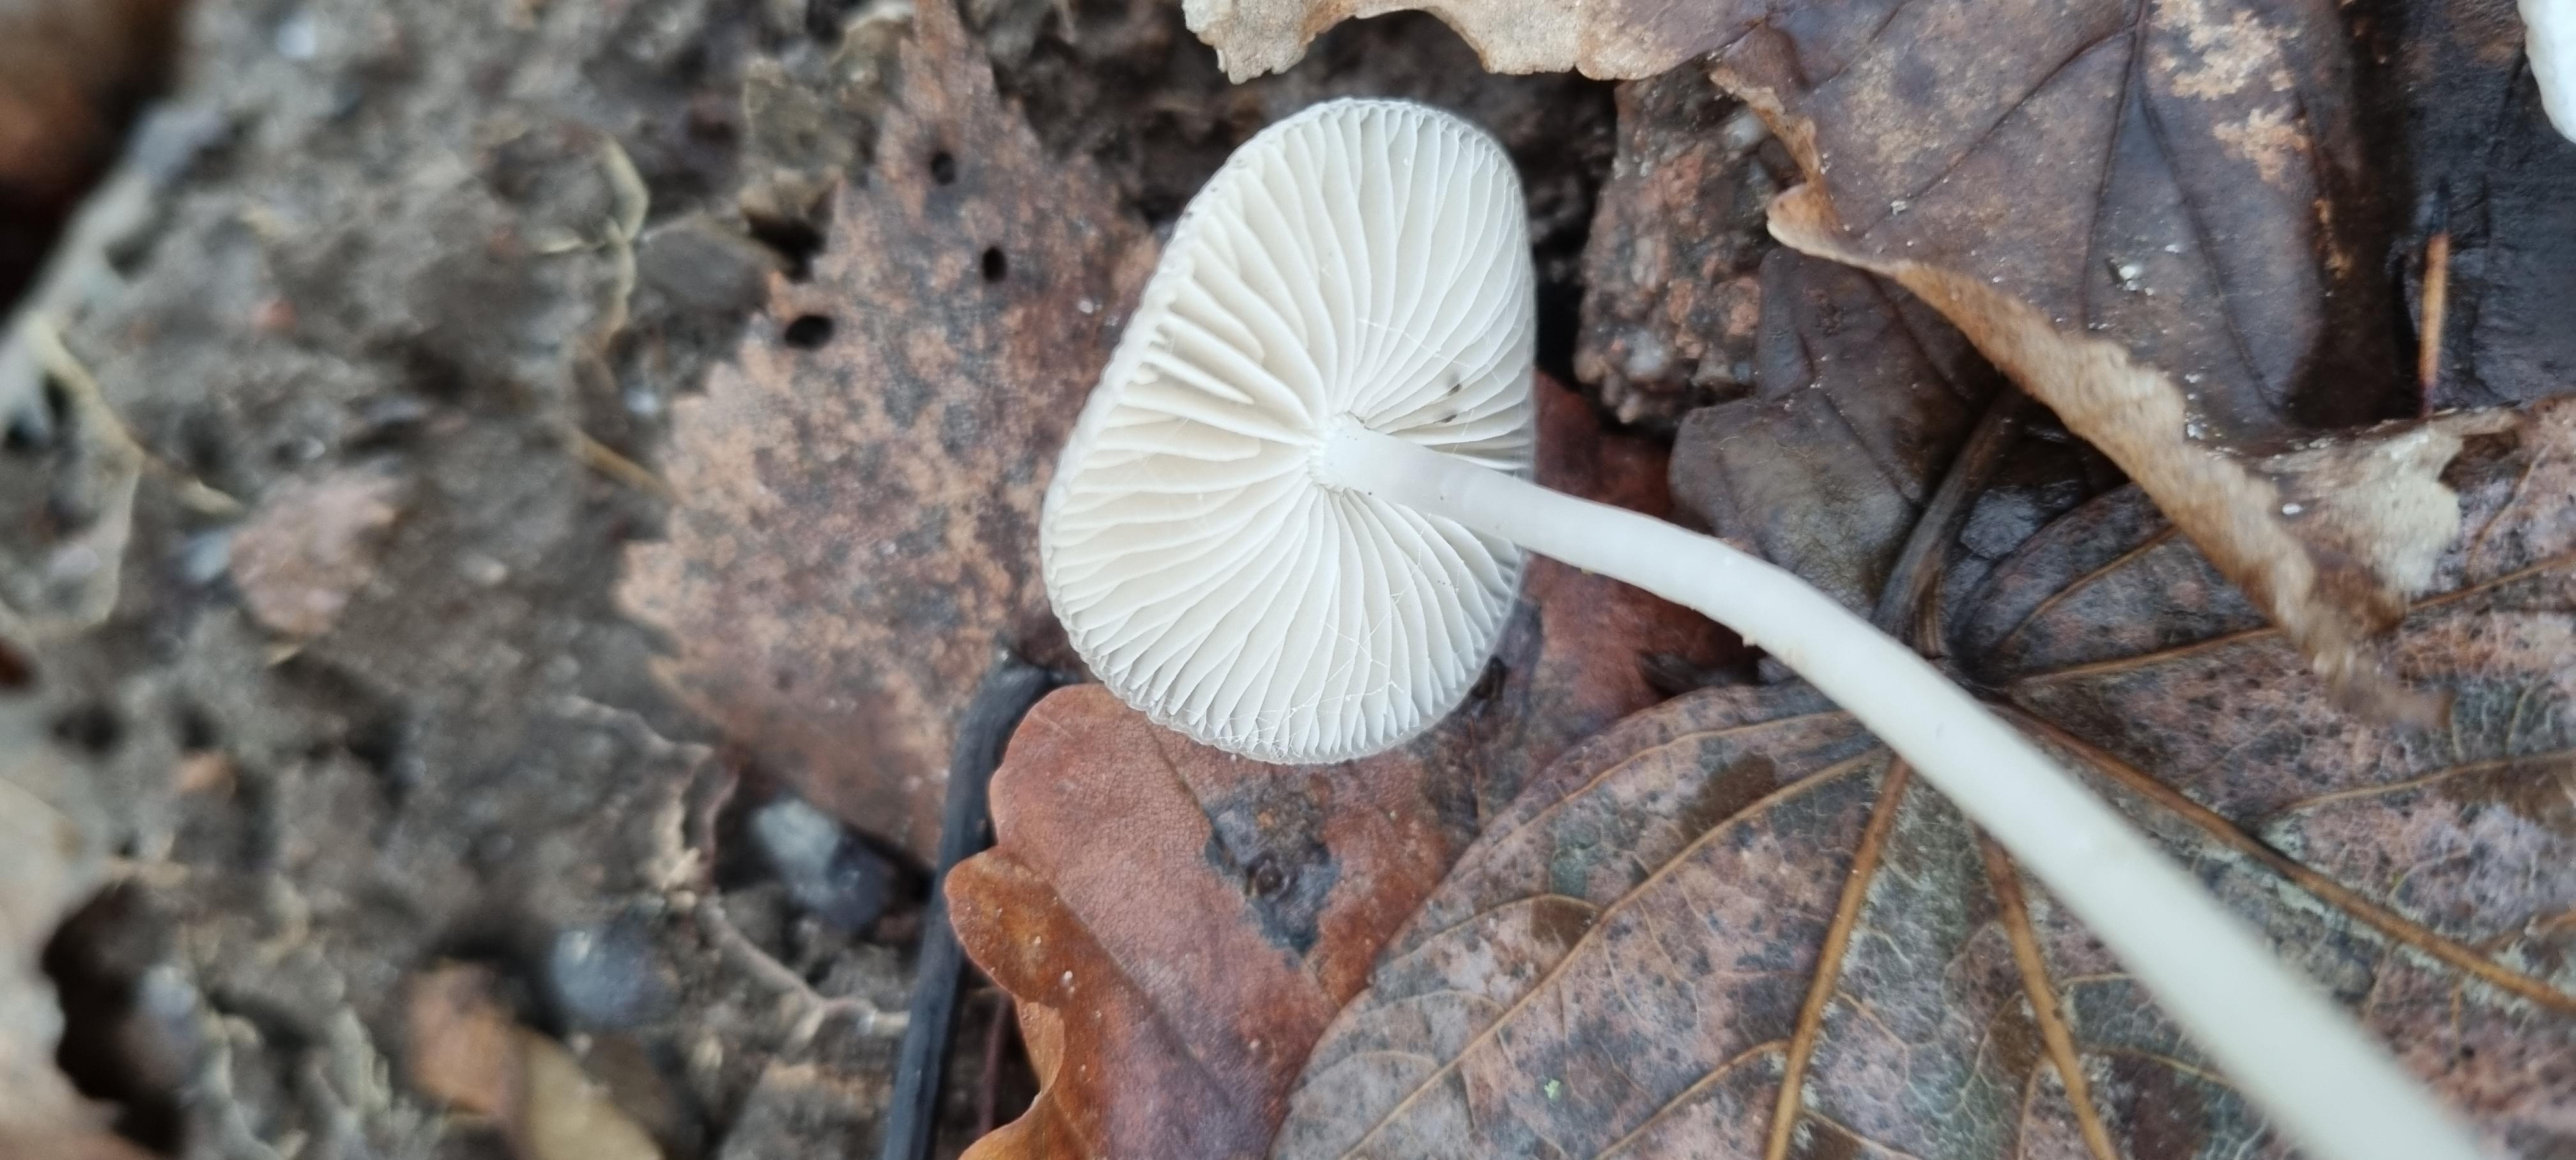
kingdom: Fungi
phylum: Basidiomycota
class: Agaricomycetes
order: Agaricales
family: Mycenaceae
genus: Mycena
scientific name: Mycena vitilis
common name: blankstokket huesvamp
